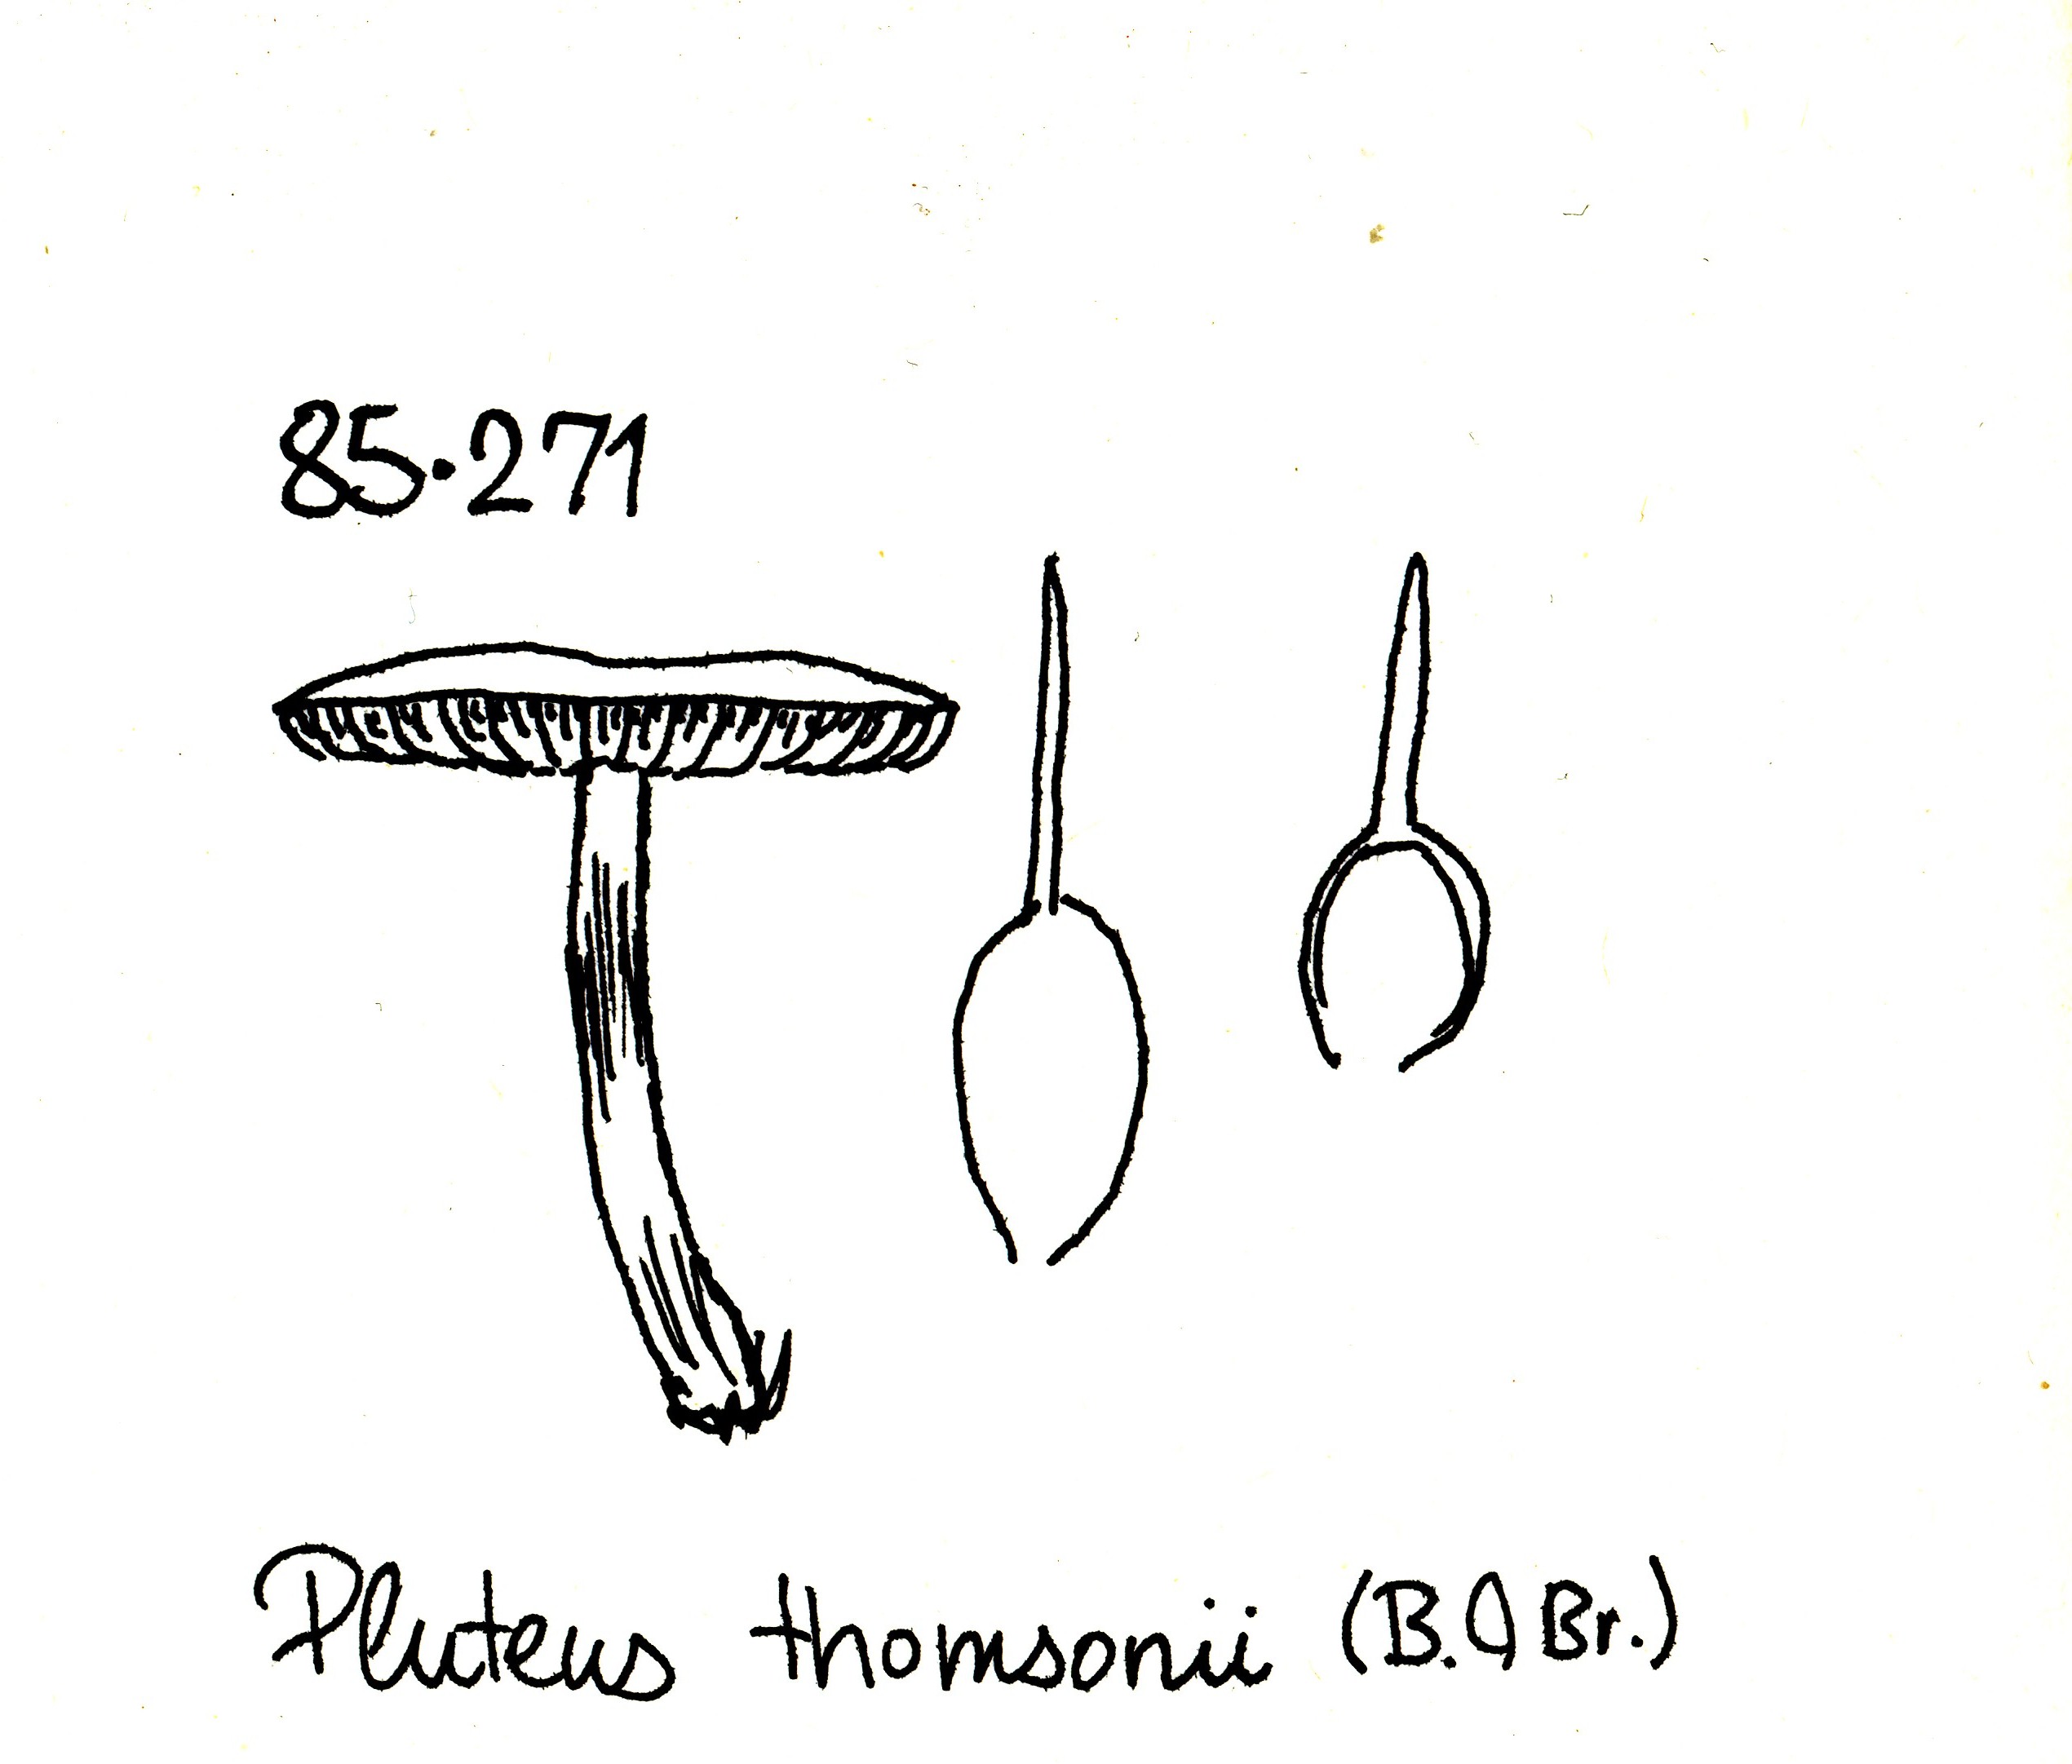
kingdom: Fungi
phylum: Basidiomycota
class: Agaricomycetes
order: Agaricales
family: Pluteaceae
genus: Pluteus
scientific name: Pluteus
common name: gråstokket skærmhat
